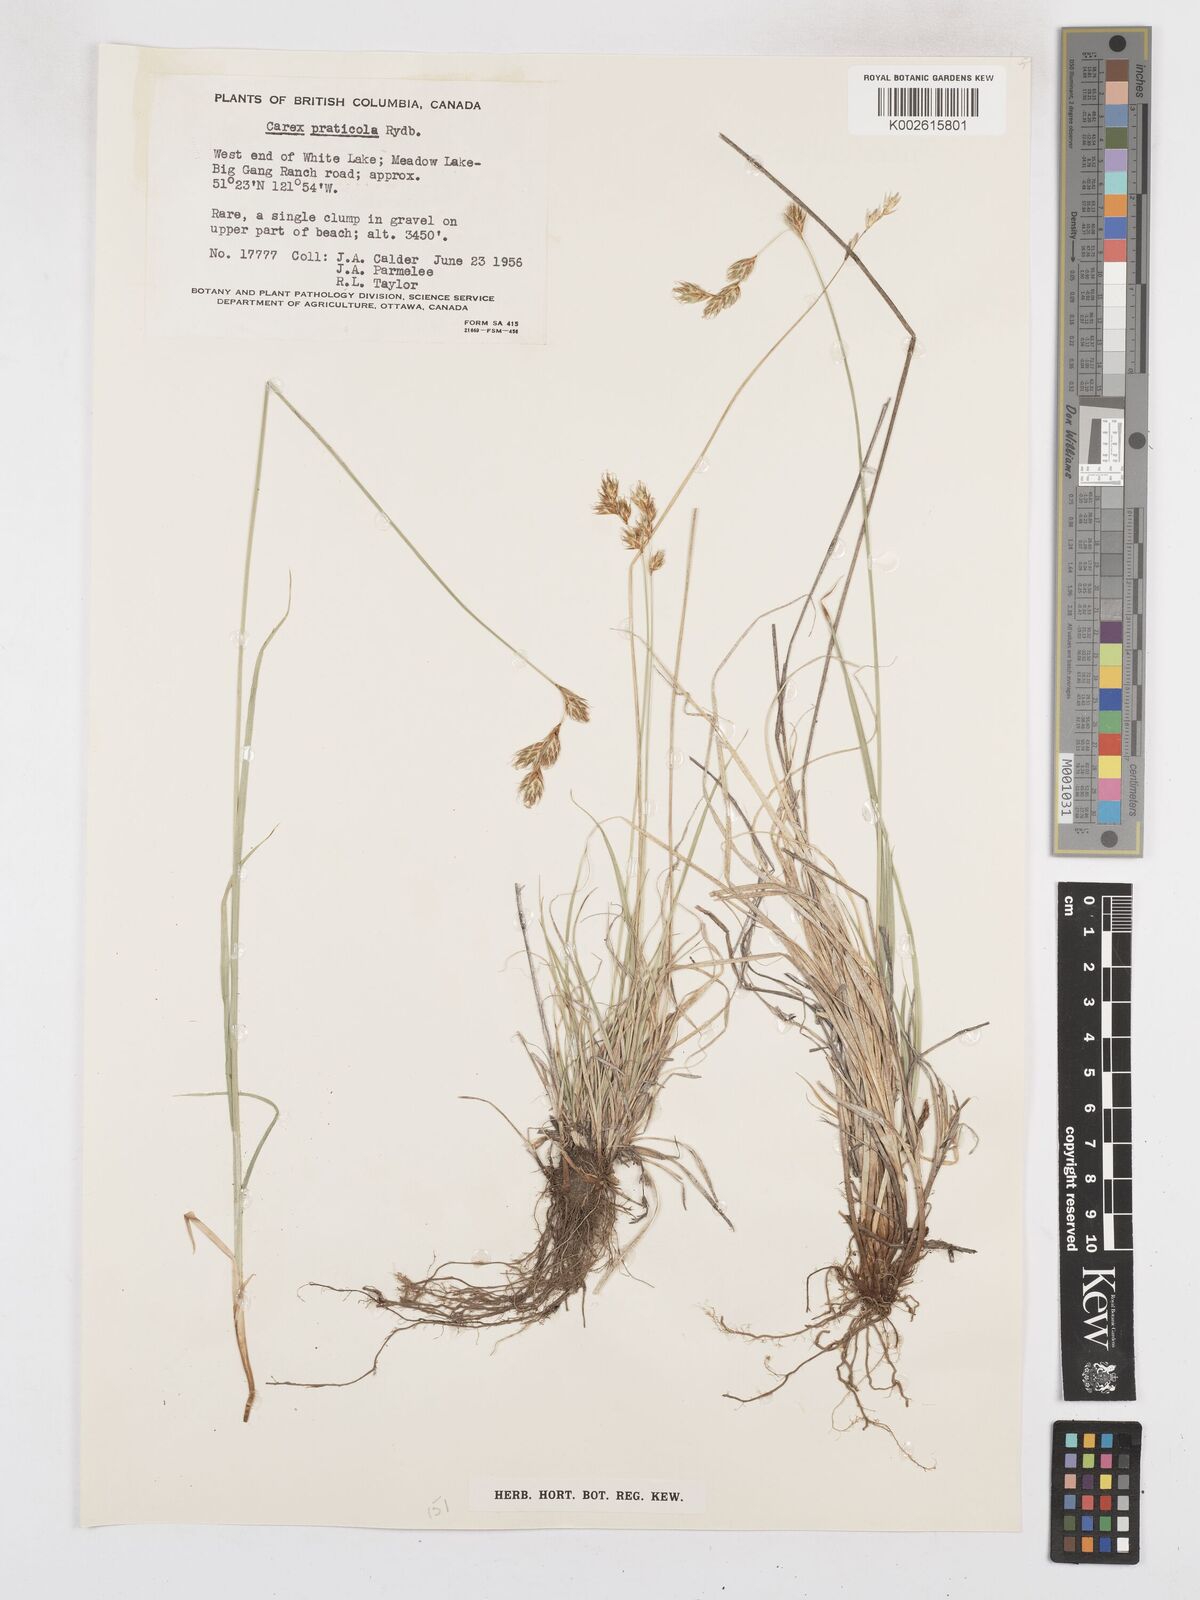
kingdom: Plantae
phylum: Tracheophyta
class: Liliopsida
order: Poales
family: Cyperaceae
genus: Carex
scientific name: Carex praticola
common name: Large-fruited oval sedge
